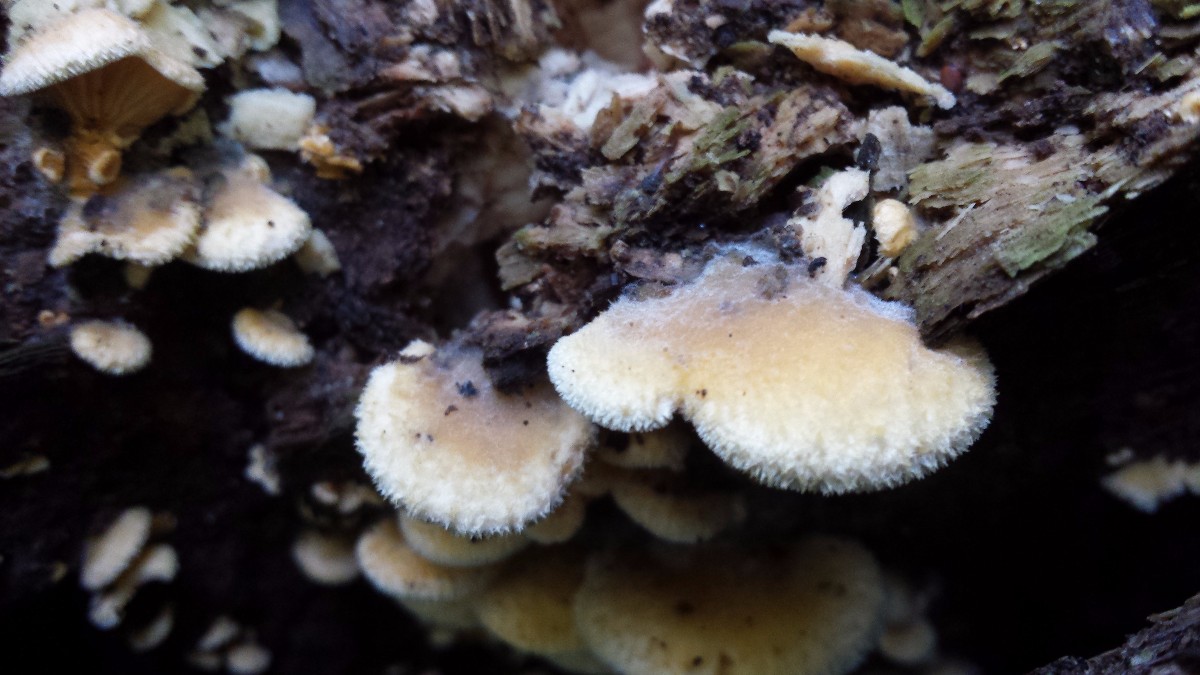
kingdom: Fungi
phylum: Basidiomycota
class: Agaricomycetes
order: Agaricales
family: Schizophyllaceae
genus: Schizophyllum
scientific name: Schizophyllum commune
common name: kløvblad
